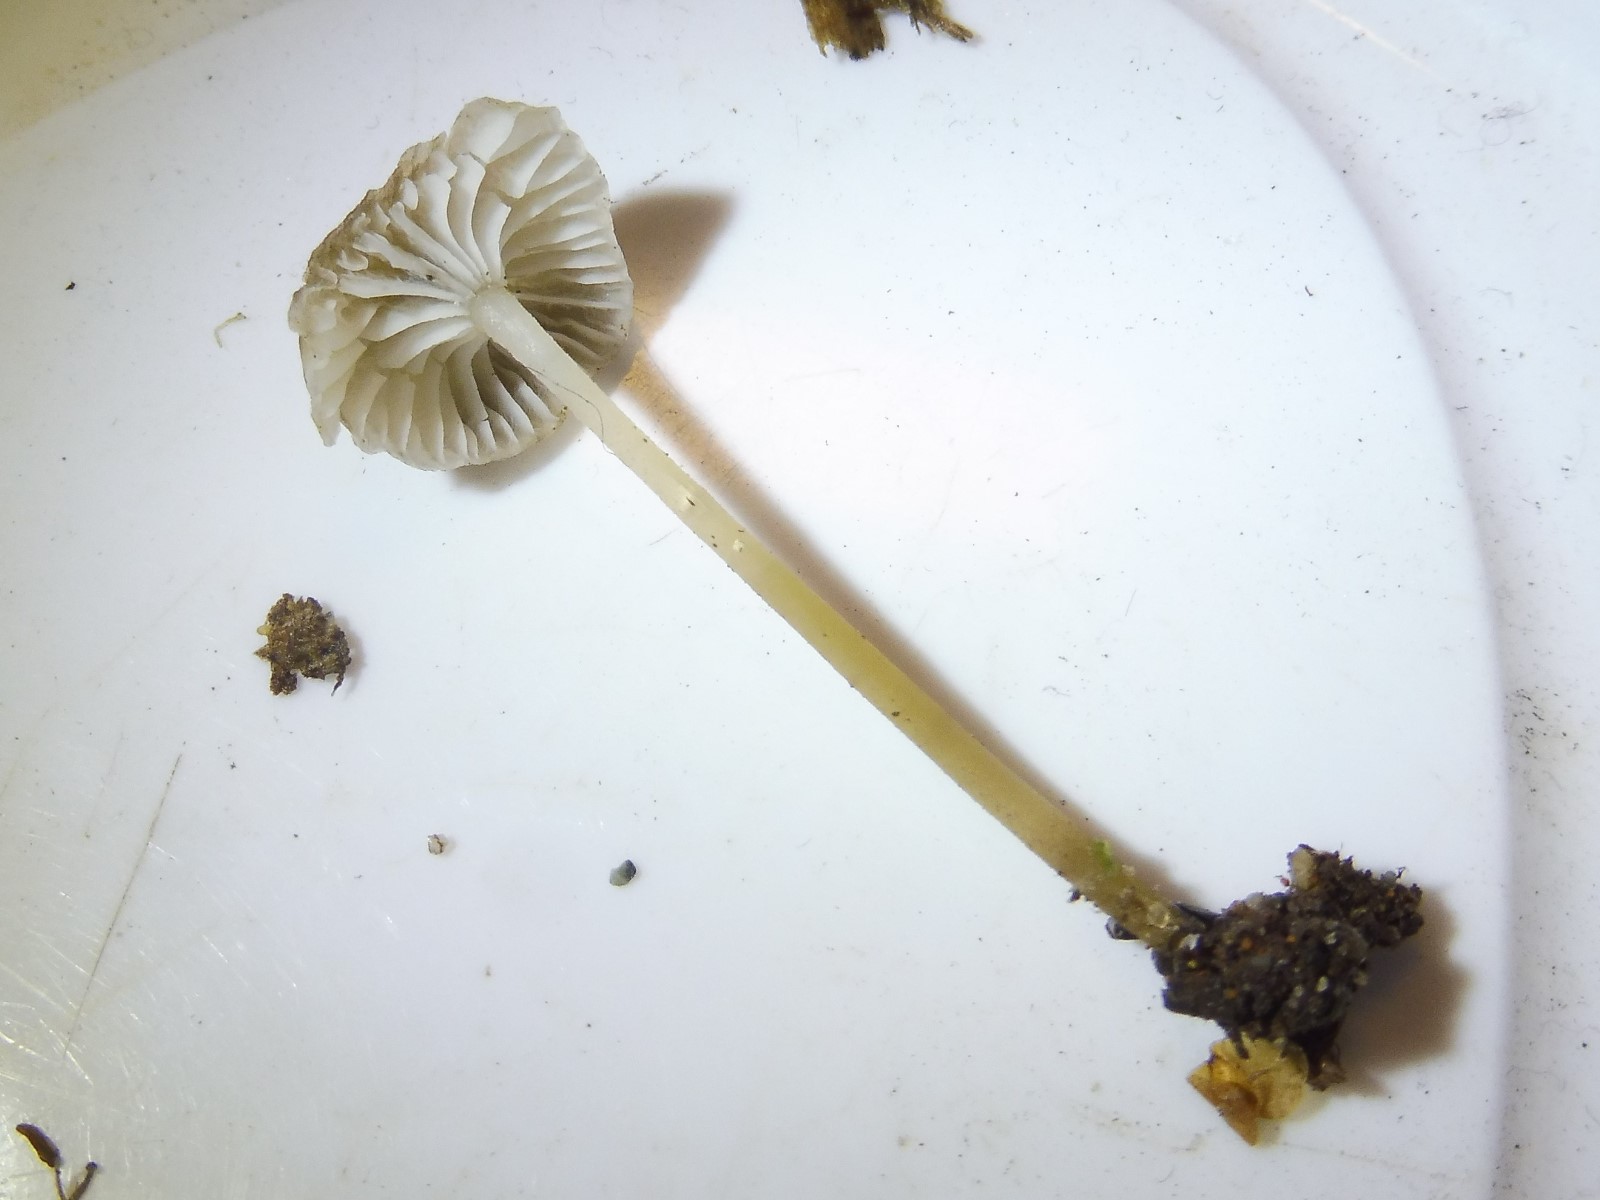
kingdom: Fungi
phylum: Basidiomycota
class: Agaricomycetes
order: Agaricales
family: Porotheleaceae
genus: Phloeomana
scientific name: Phloeomana speirea
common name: kvist-huesvamp
